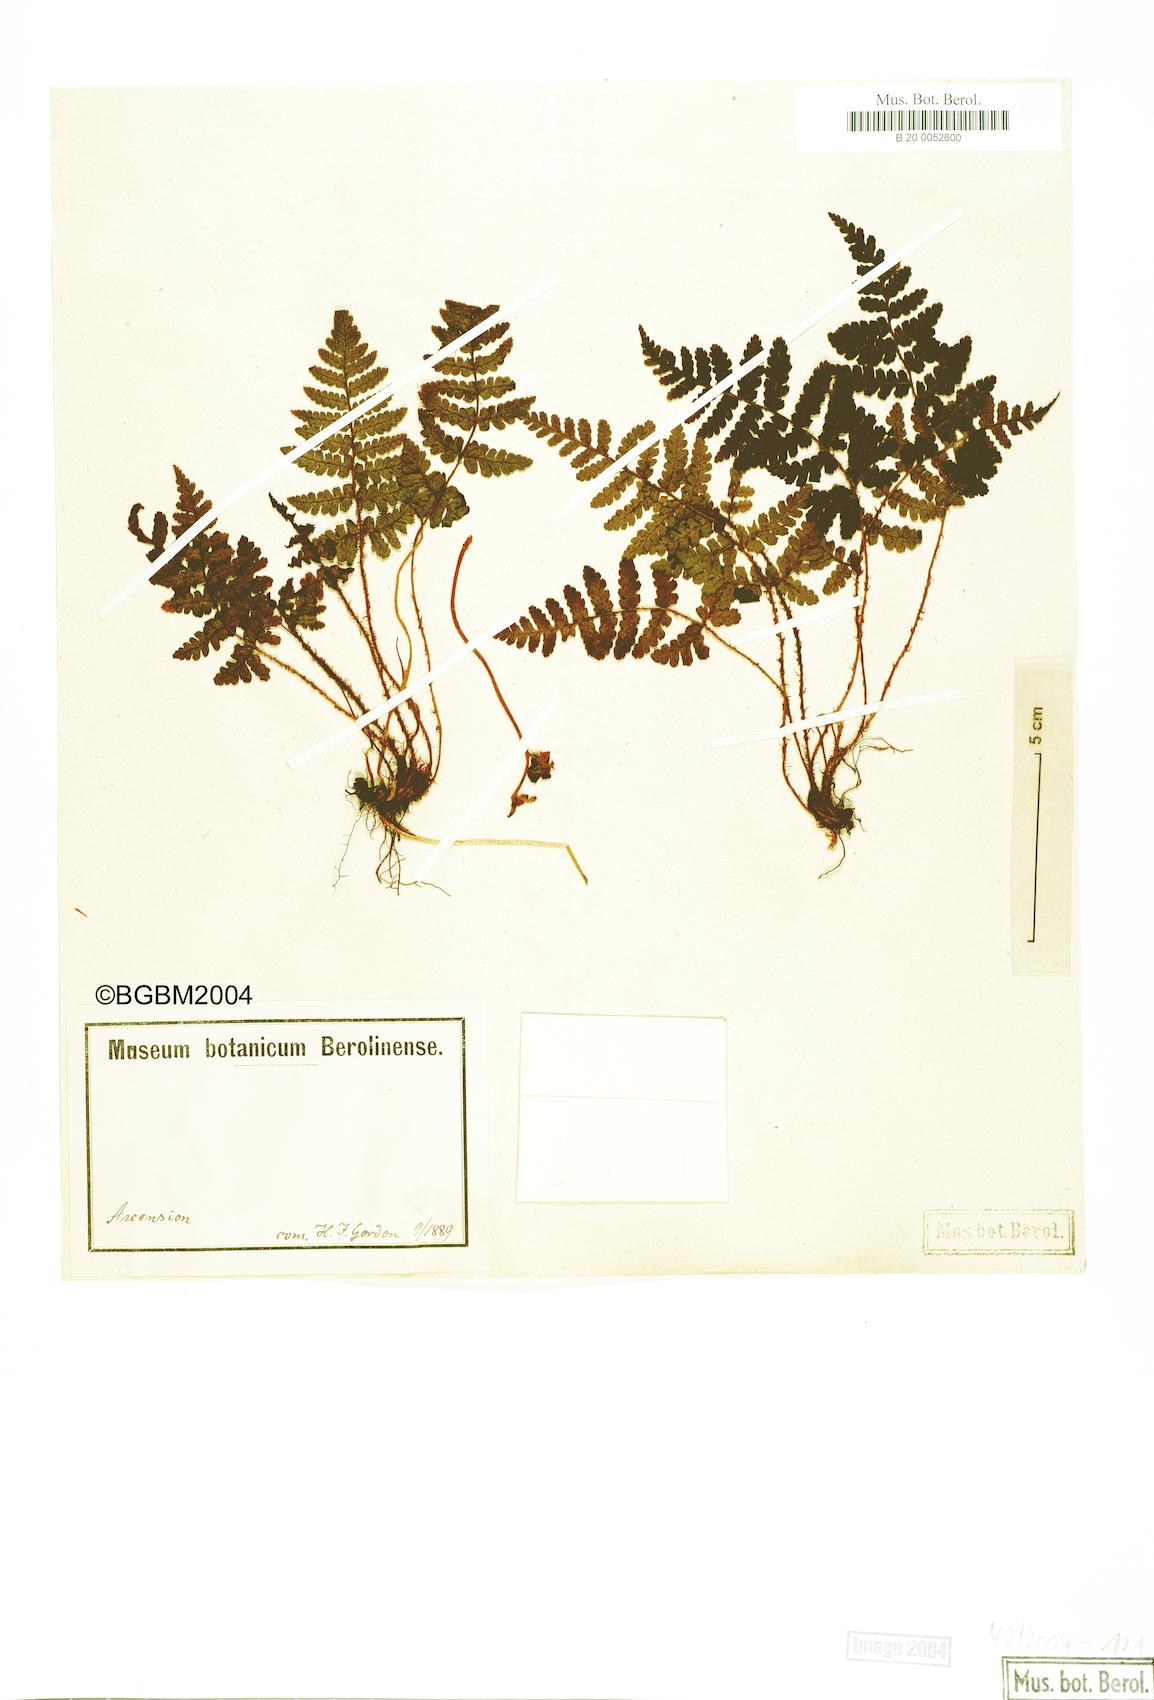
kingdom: Plantae
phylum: Tracheophyta
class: Polypodiopsida
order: Polypodiales
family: Dryopteridaceae
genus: Dryopteris
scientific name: Dryopteris ascensionis
